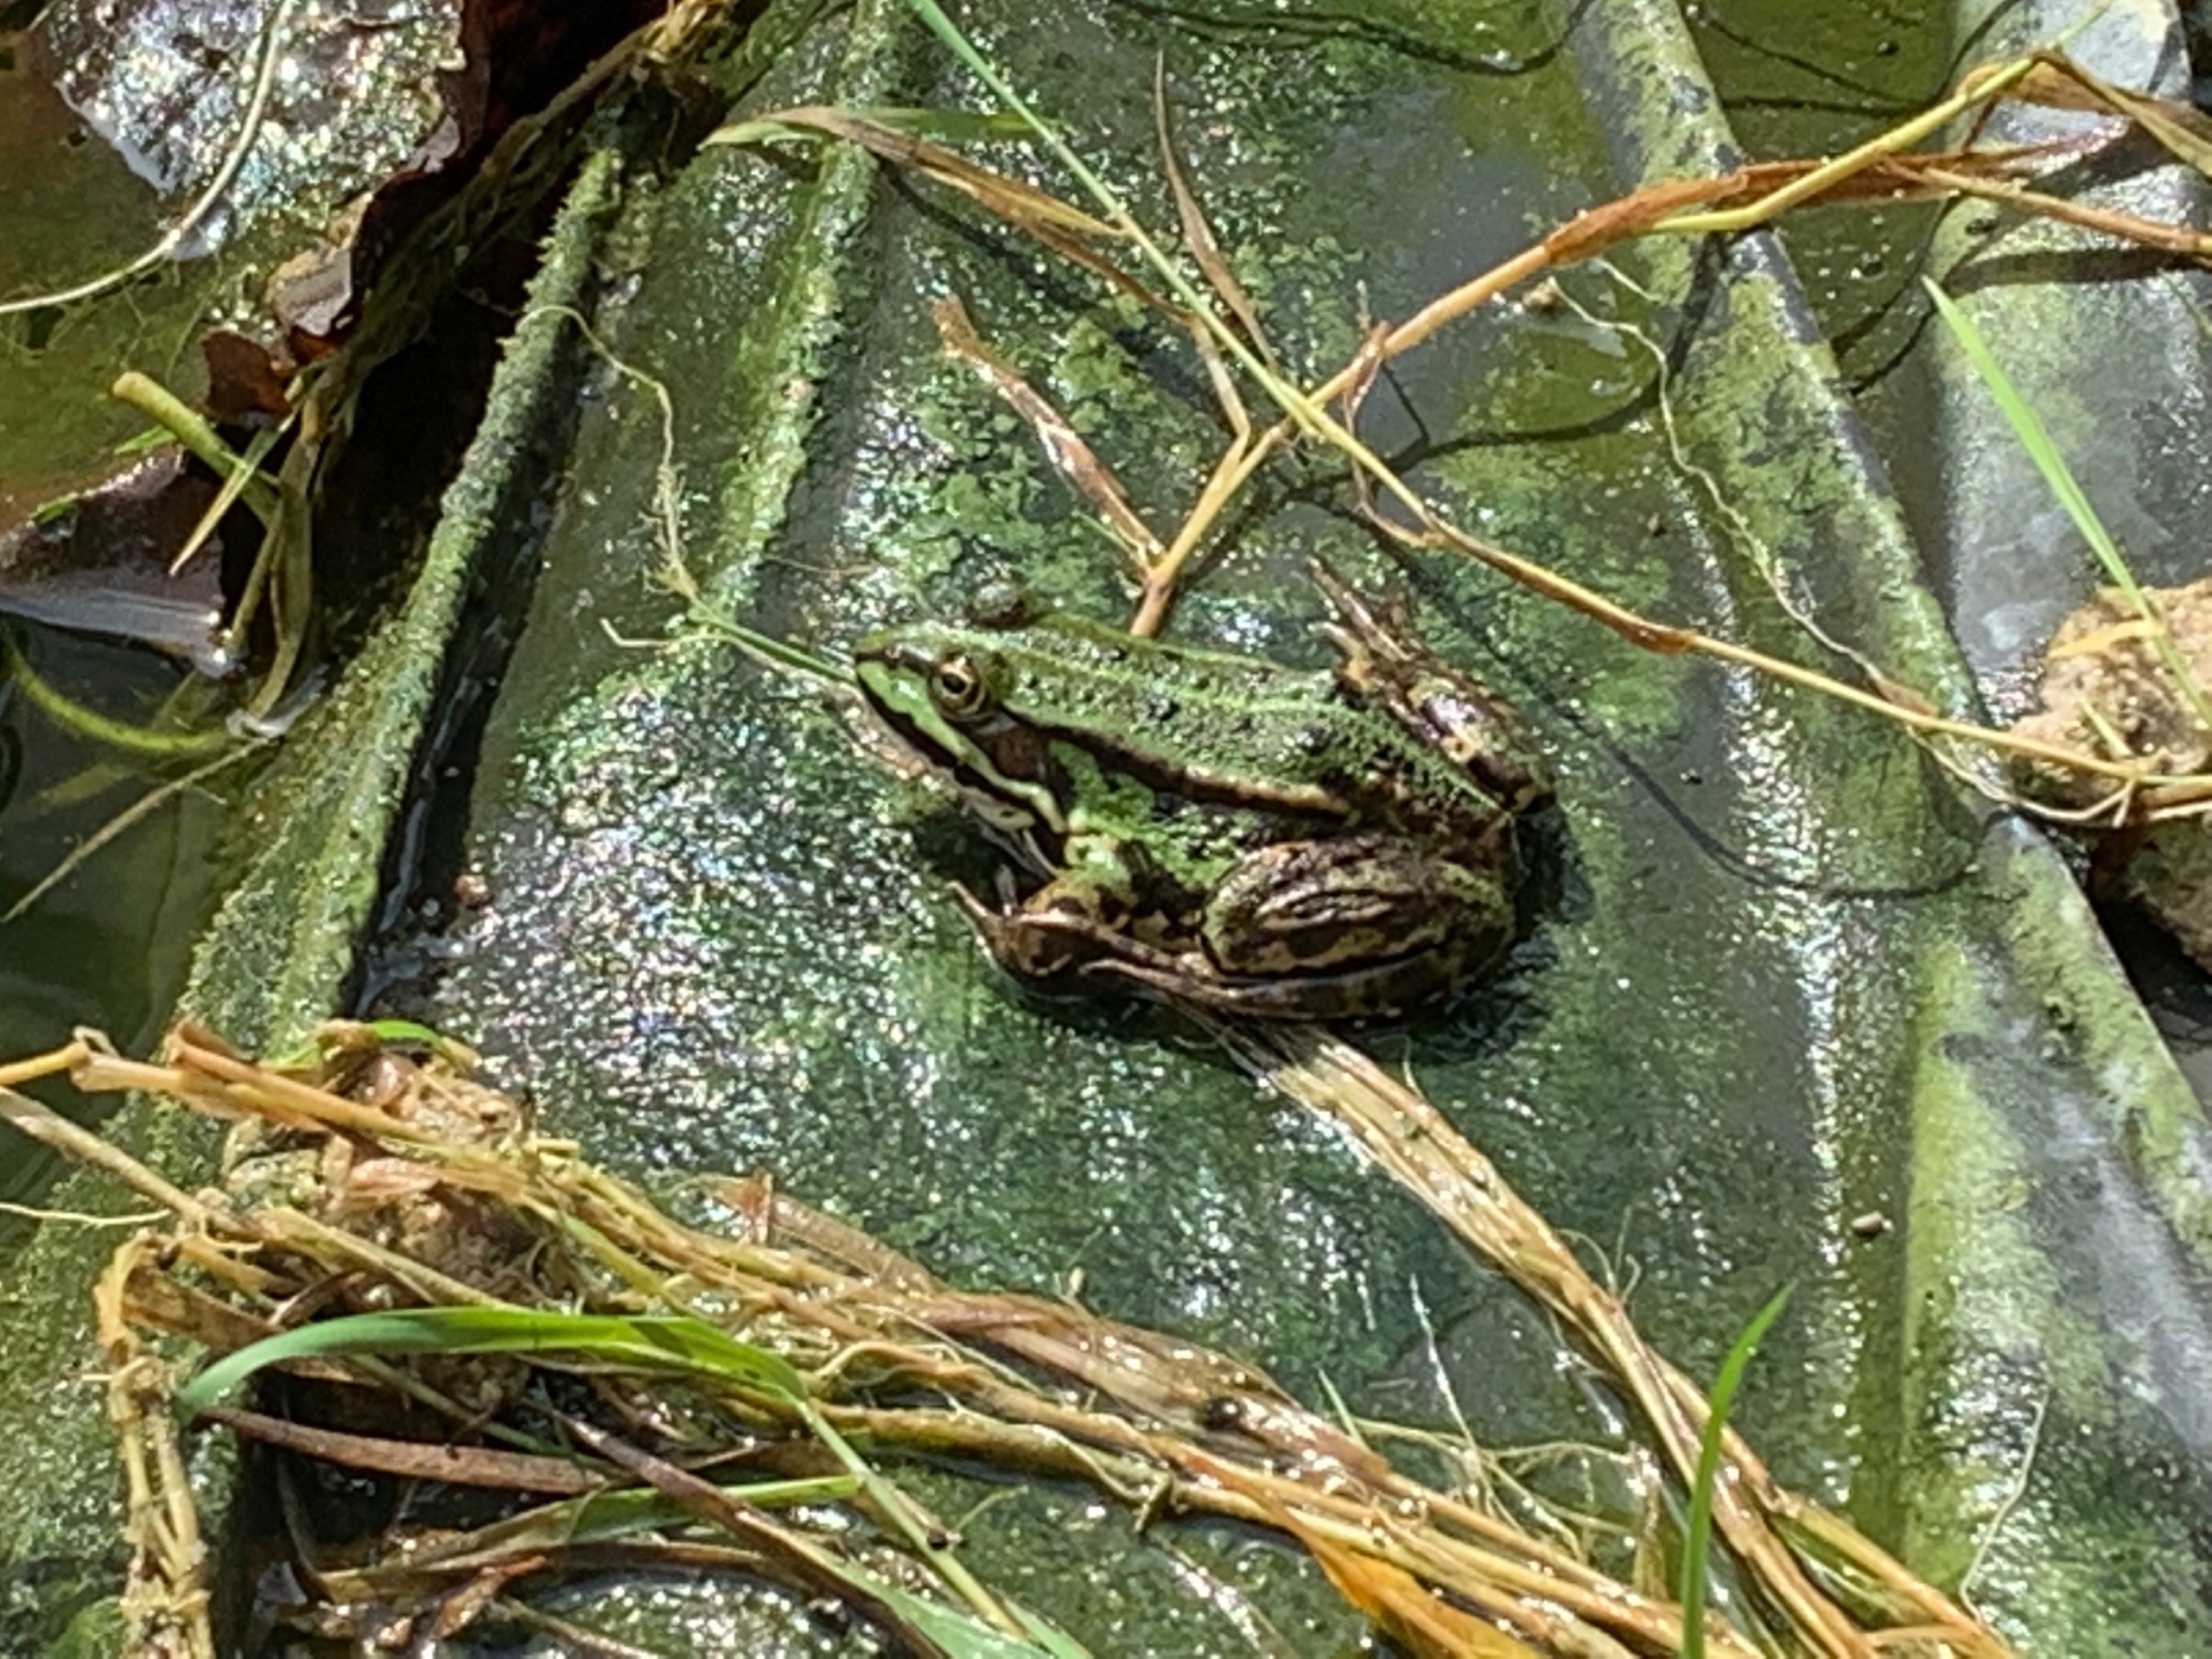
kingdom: Animalia
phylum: Chordata
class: Amphibia
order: Anura
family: Ranidae
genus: Pelophylax
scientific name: Pelophylax lessonae
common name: Grøn frø
